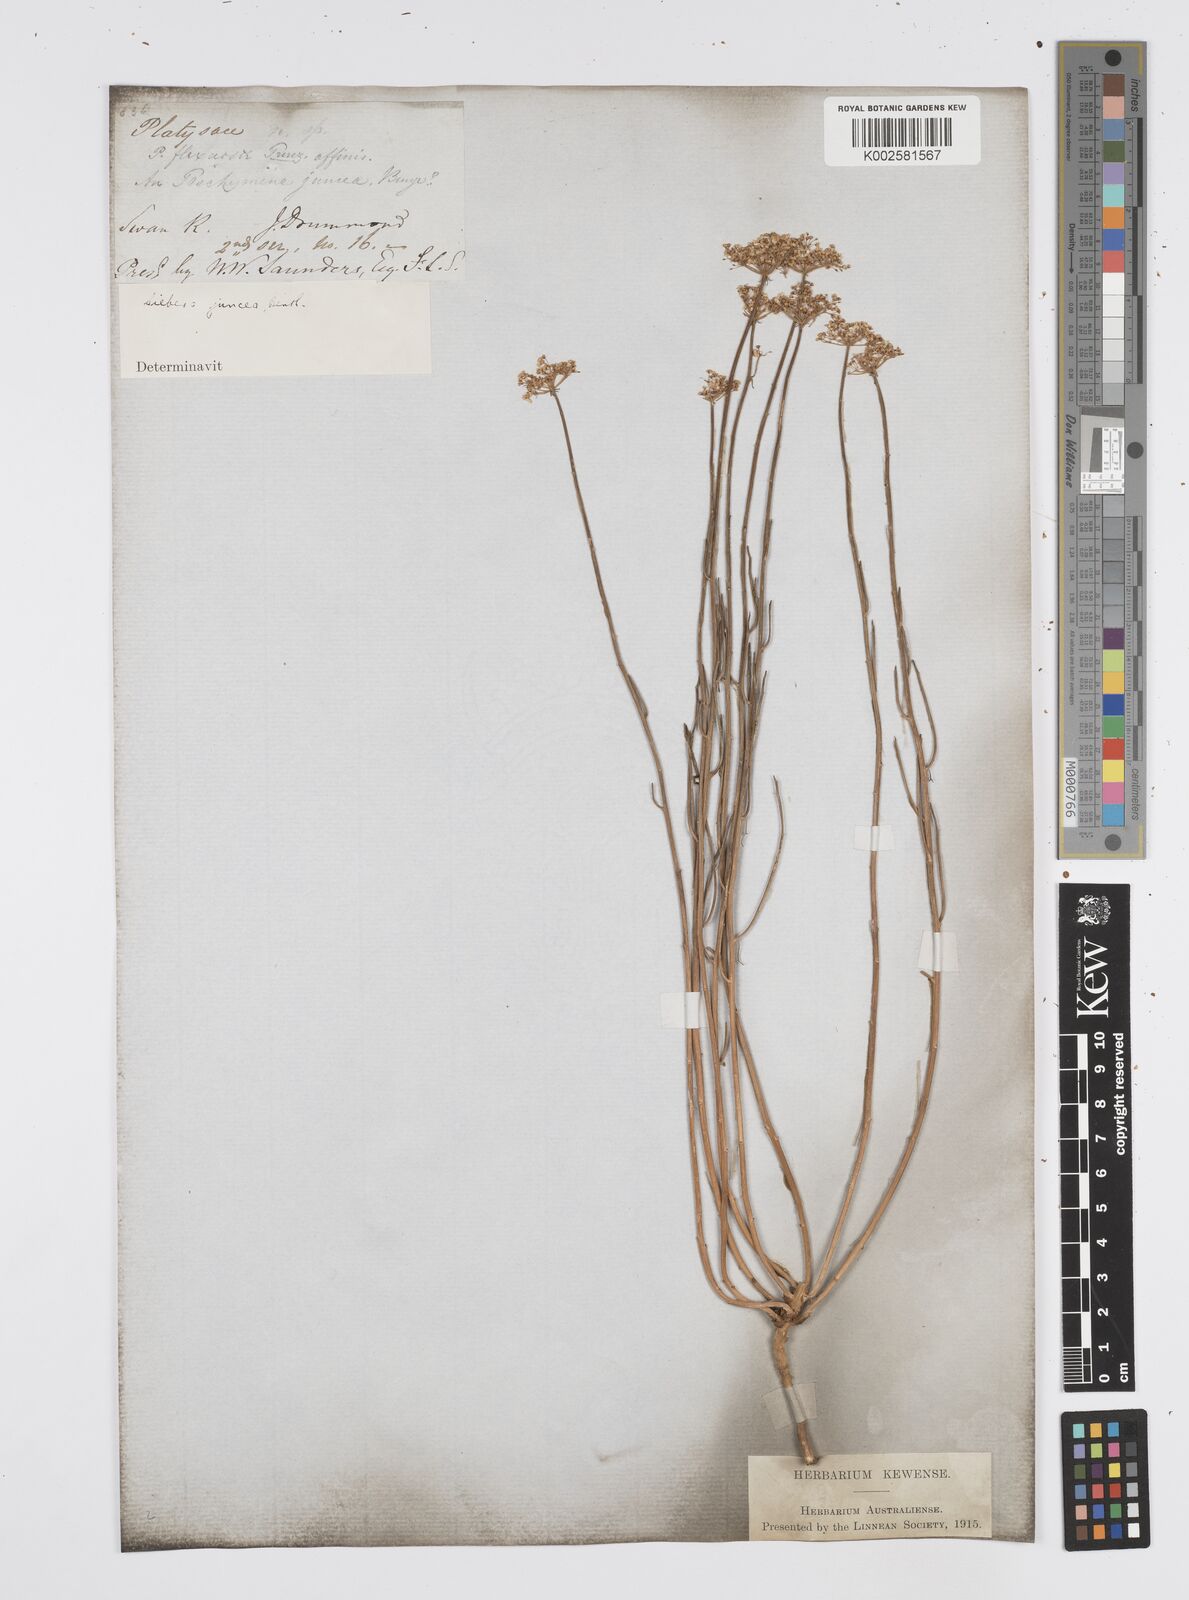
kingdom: Plantae
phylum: Tracheophyta
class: Magnoliopsida
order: Apiales
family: Apiaceae
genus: Platysace
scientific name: Platysace juncea
